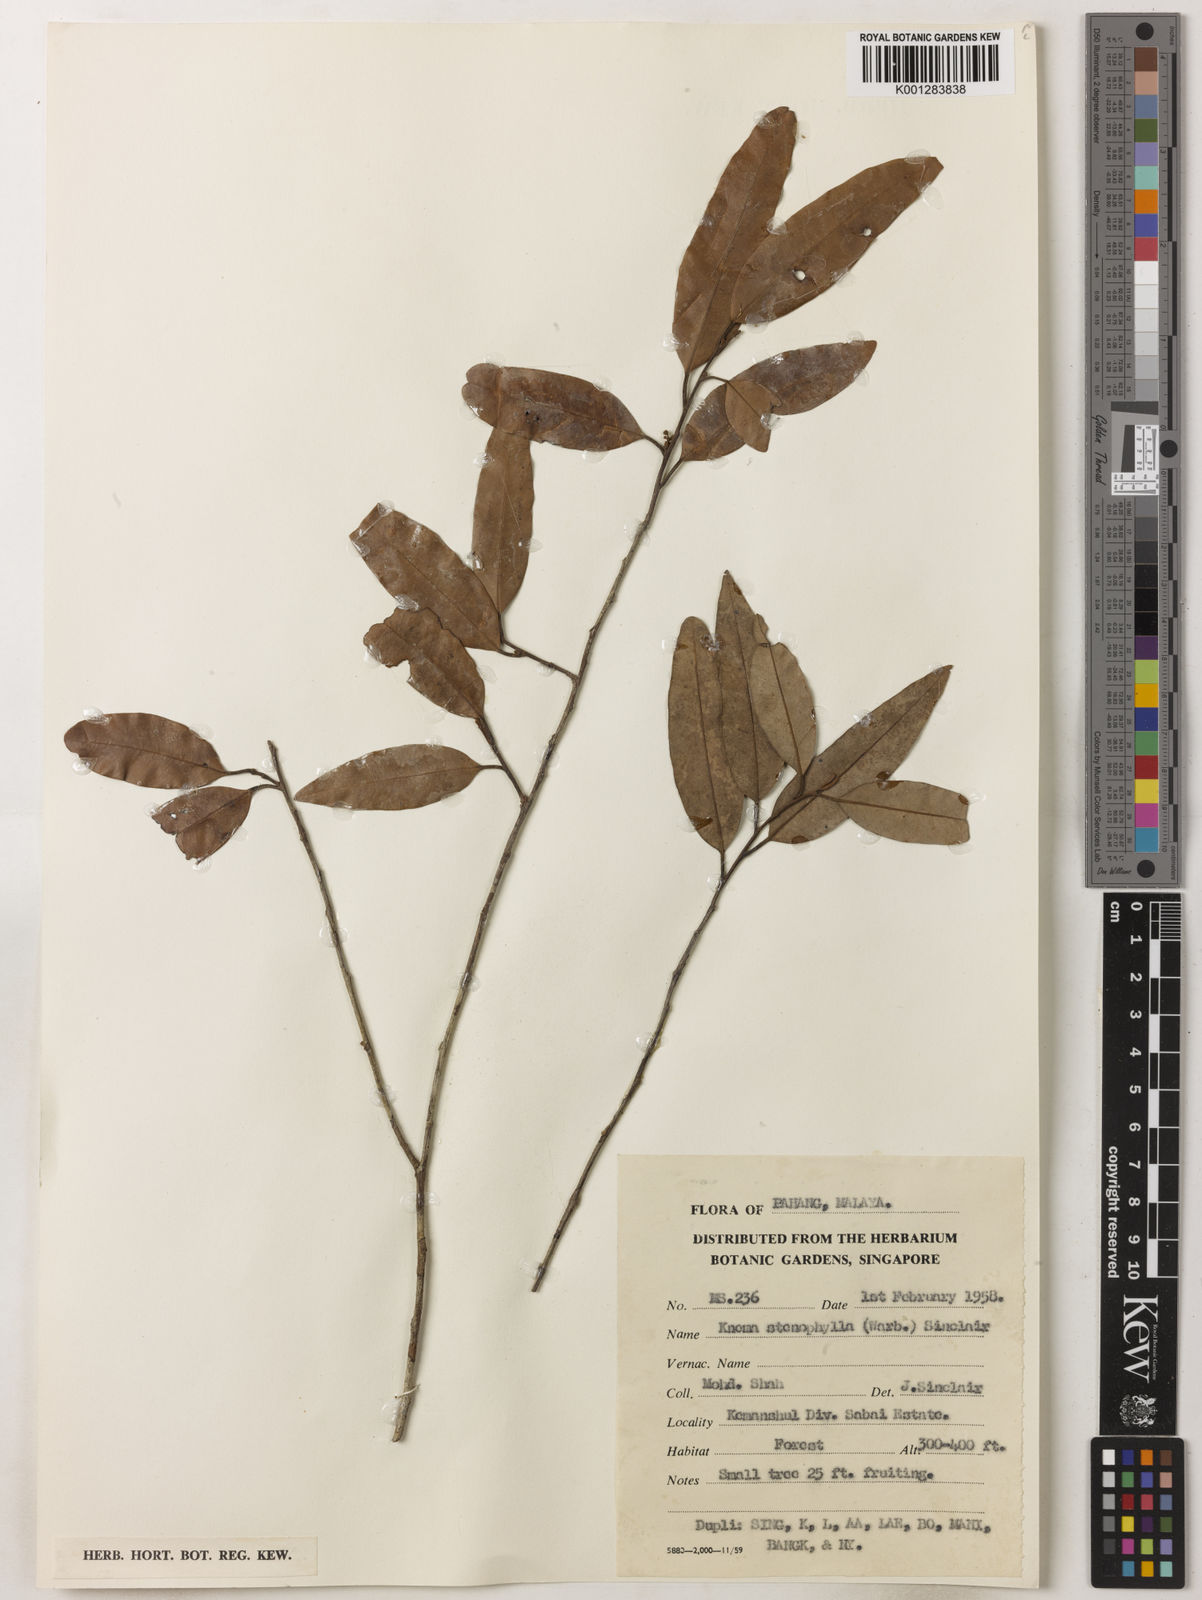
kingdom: Plantae
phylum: Tracheophyta
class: Magnoliopsida
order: Magnoliales
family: Myristicaceae
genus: Knema
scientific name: Knema stenophylla
